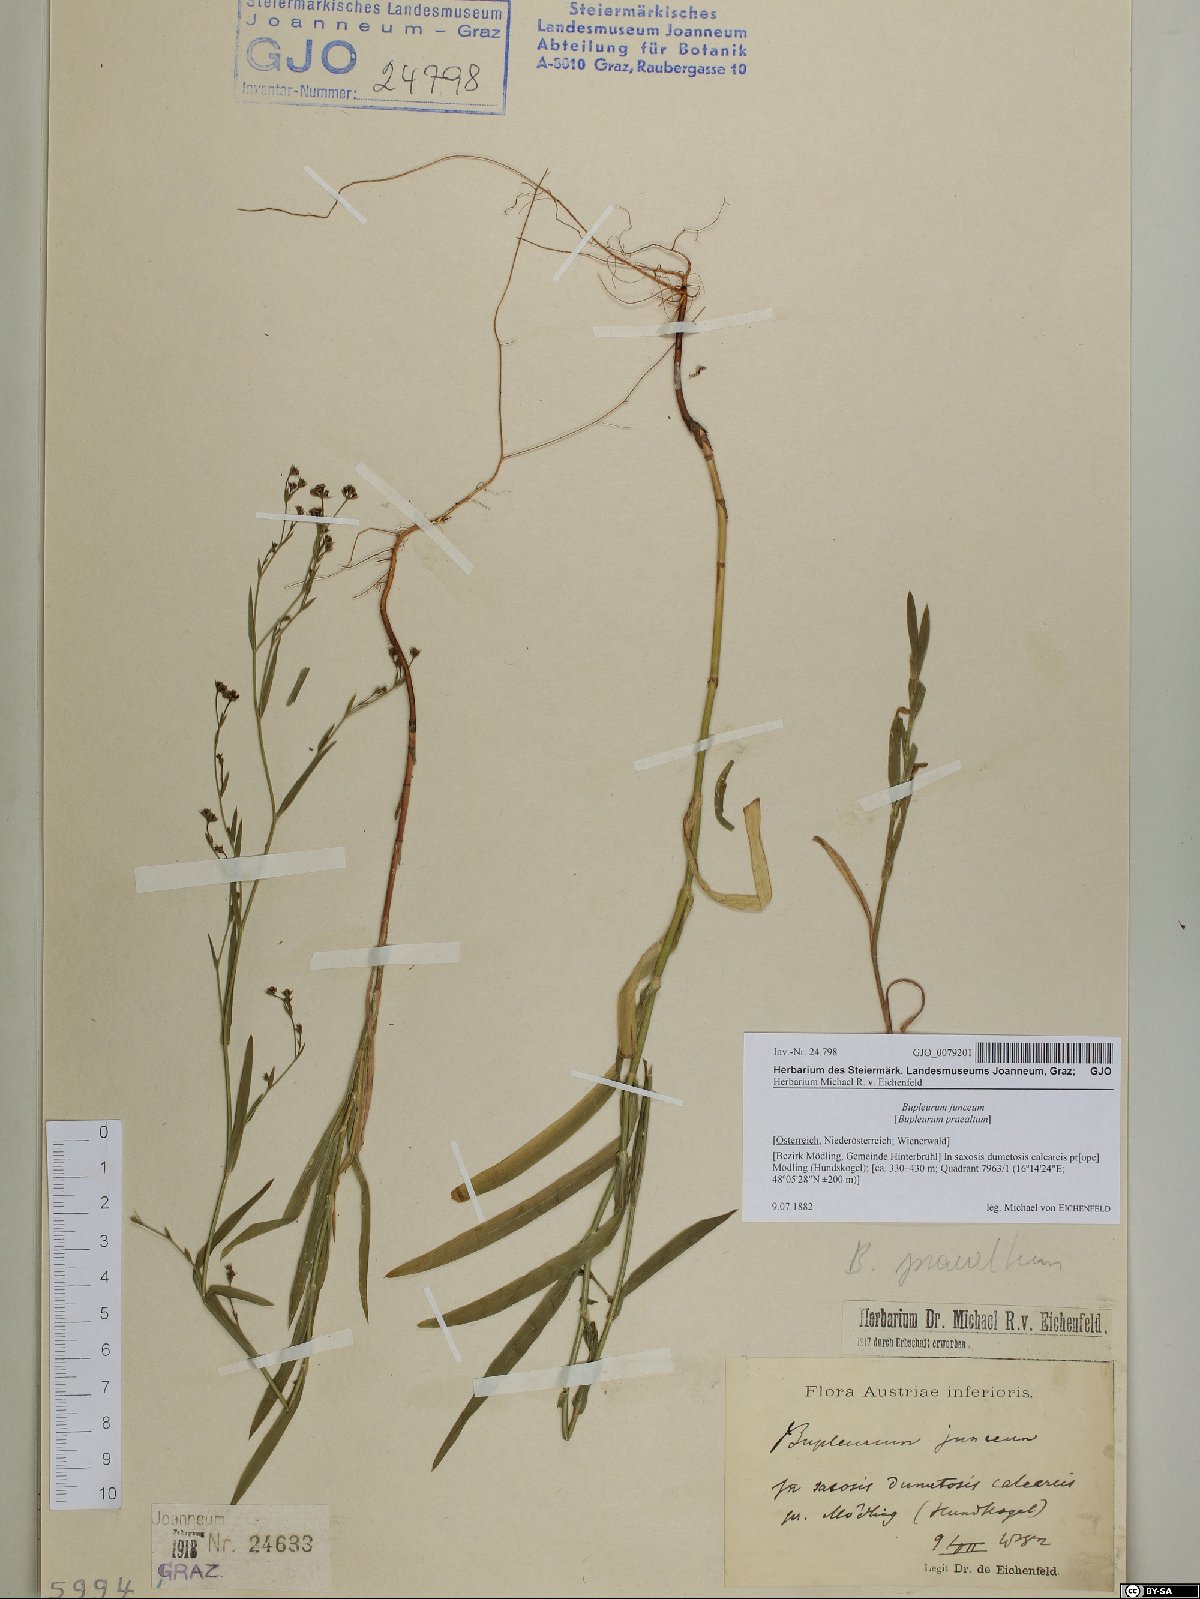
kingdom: Plantae
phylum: Tracheophyta
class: Magnoliopsida
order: Apiales
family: Apiaceae
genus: Bupleurum
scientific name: Bupleurum praealtum
